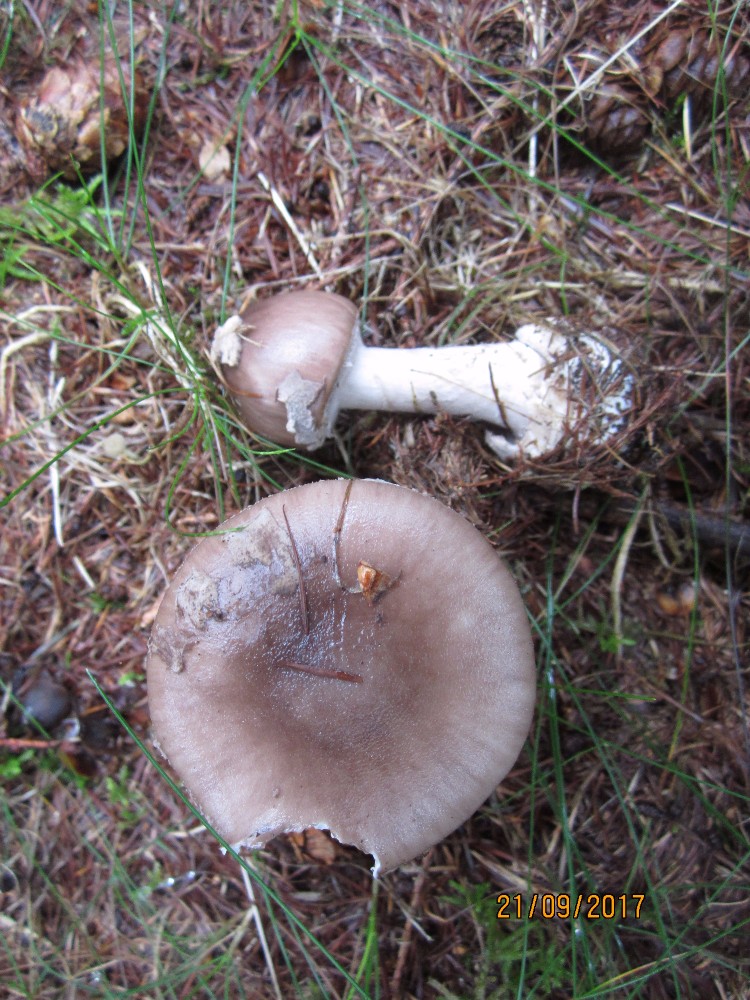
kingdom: Fungi
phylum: Basidiomycota
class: Agaricomycetes
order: Agaricales
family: Amanitaceae
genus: Amanita
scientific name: Amanita porphyria
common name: porfyr-fluesvamp
